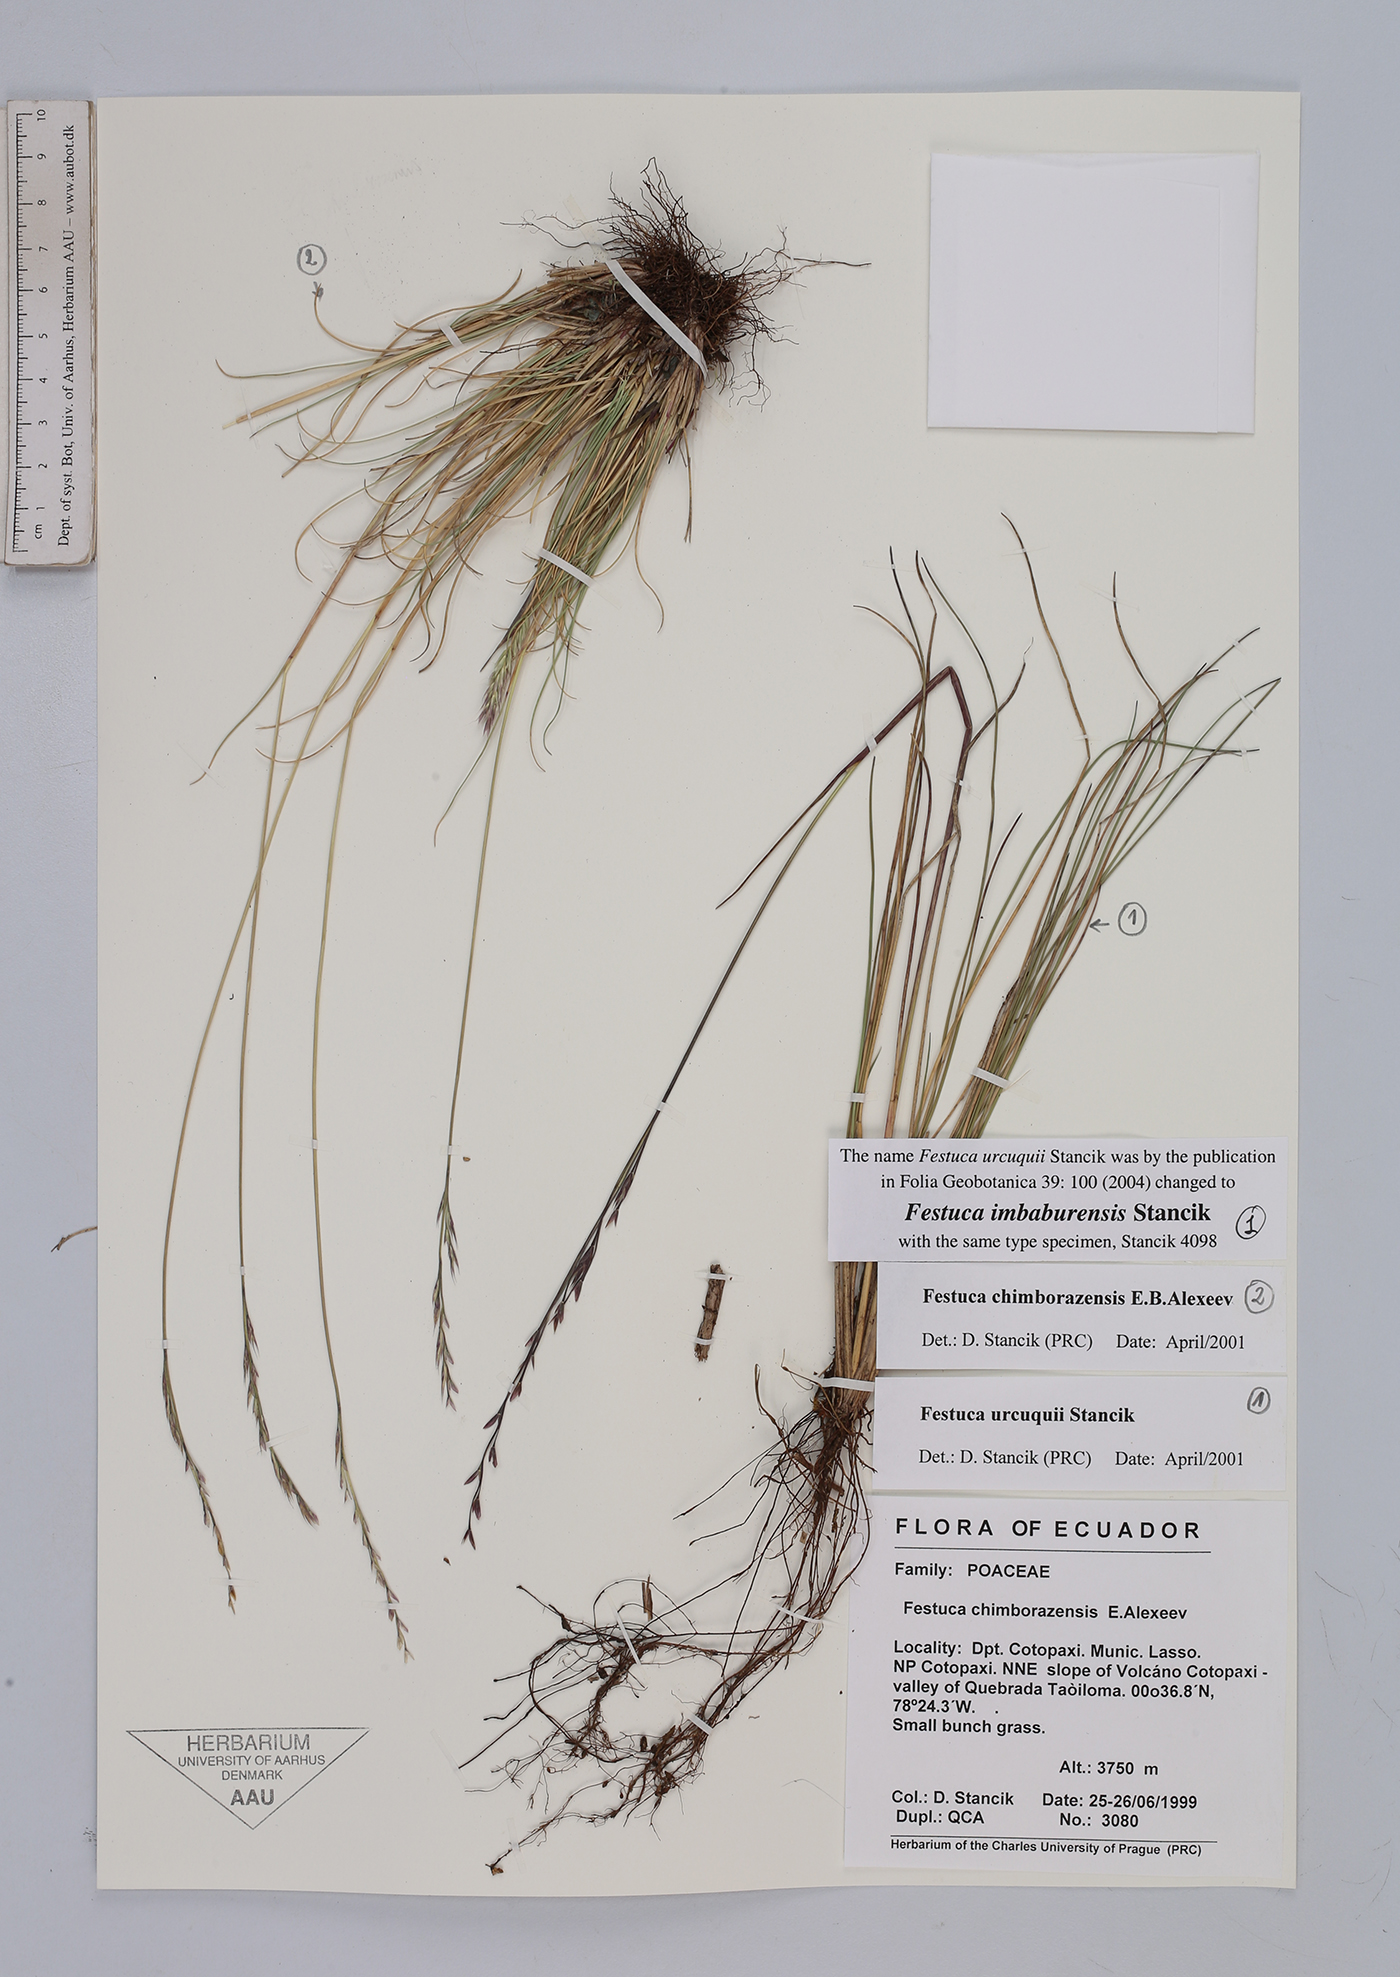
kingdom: Plantae
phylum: Tracheophyta
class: Liliopsida
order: Poales
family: Poaceae
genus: Festuca
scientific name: Festuca imbaburensis
